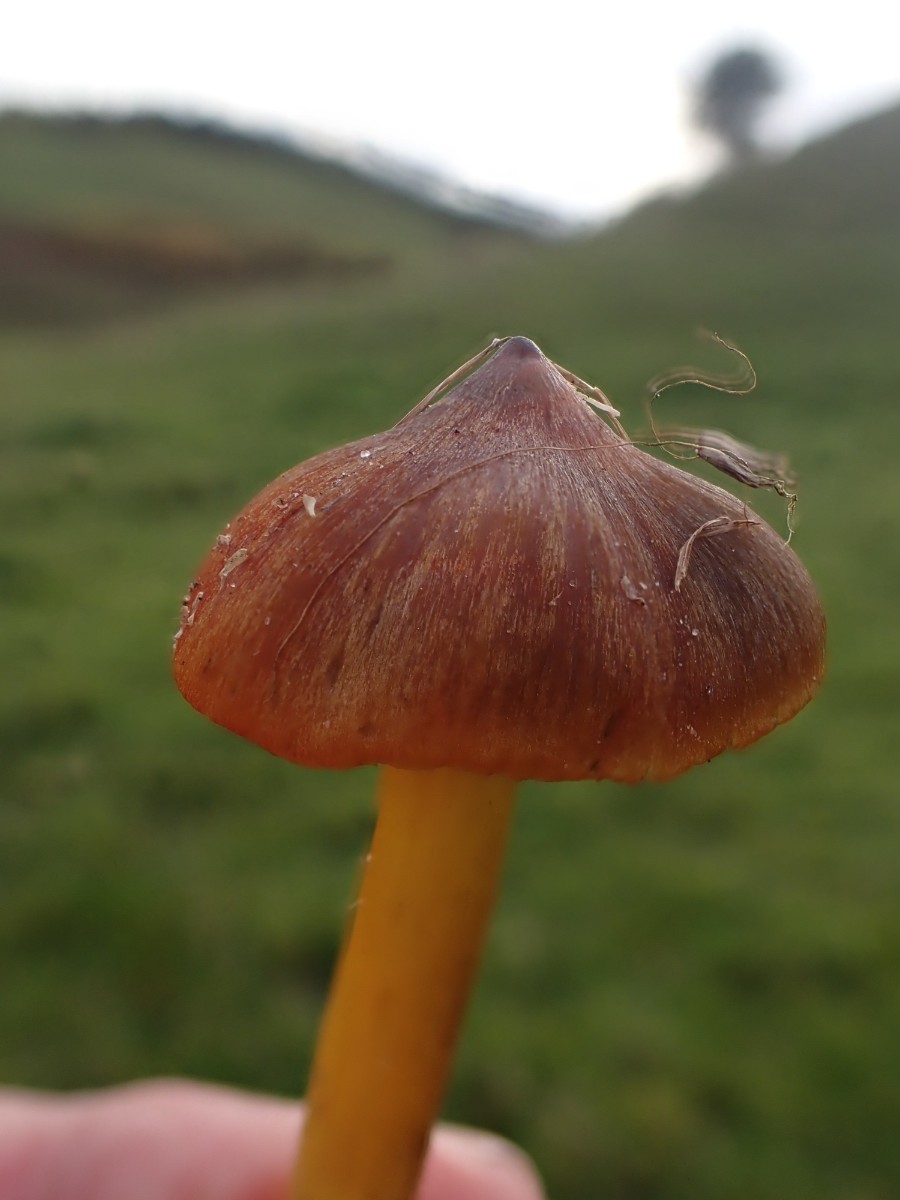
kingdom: Fungi
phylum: Basidiomycota
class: Agaricomycetes
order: Agaricales
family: Hygrophoraceae
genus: Hygrocybe
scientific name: Hygrocybe conica
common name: kegle-vokshat
